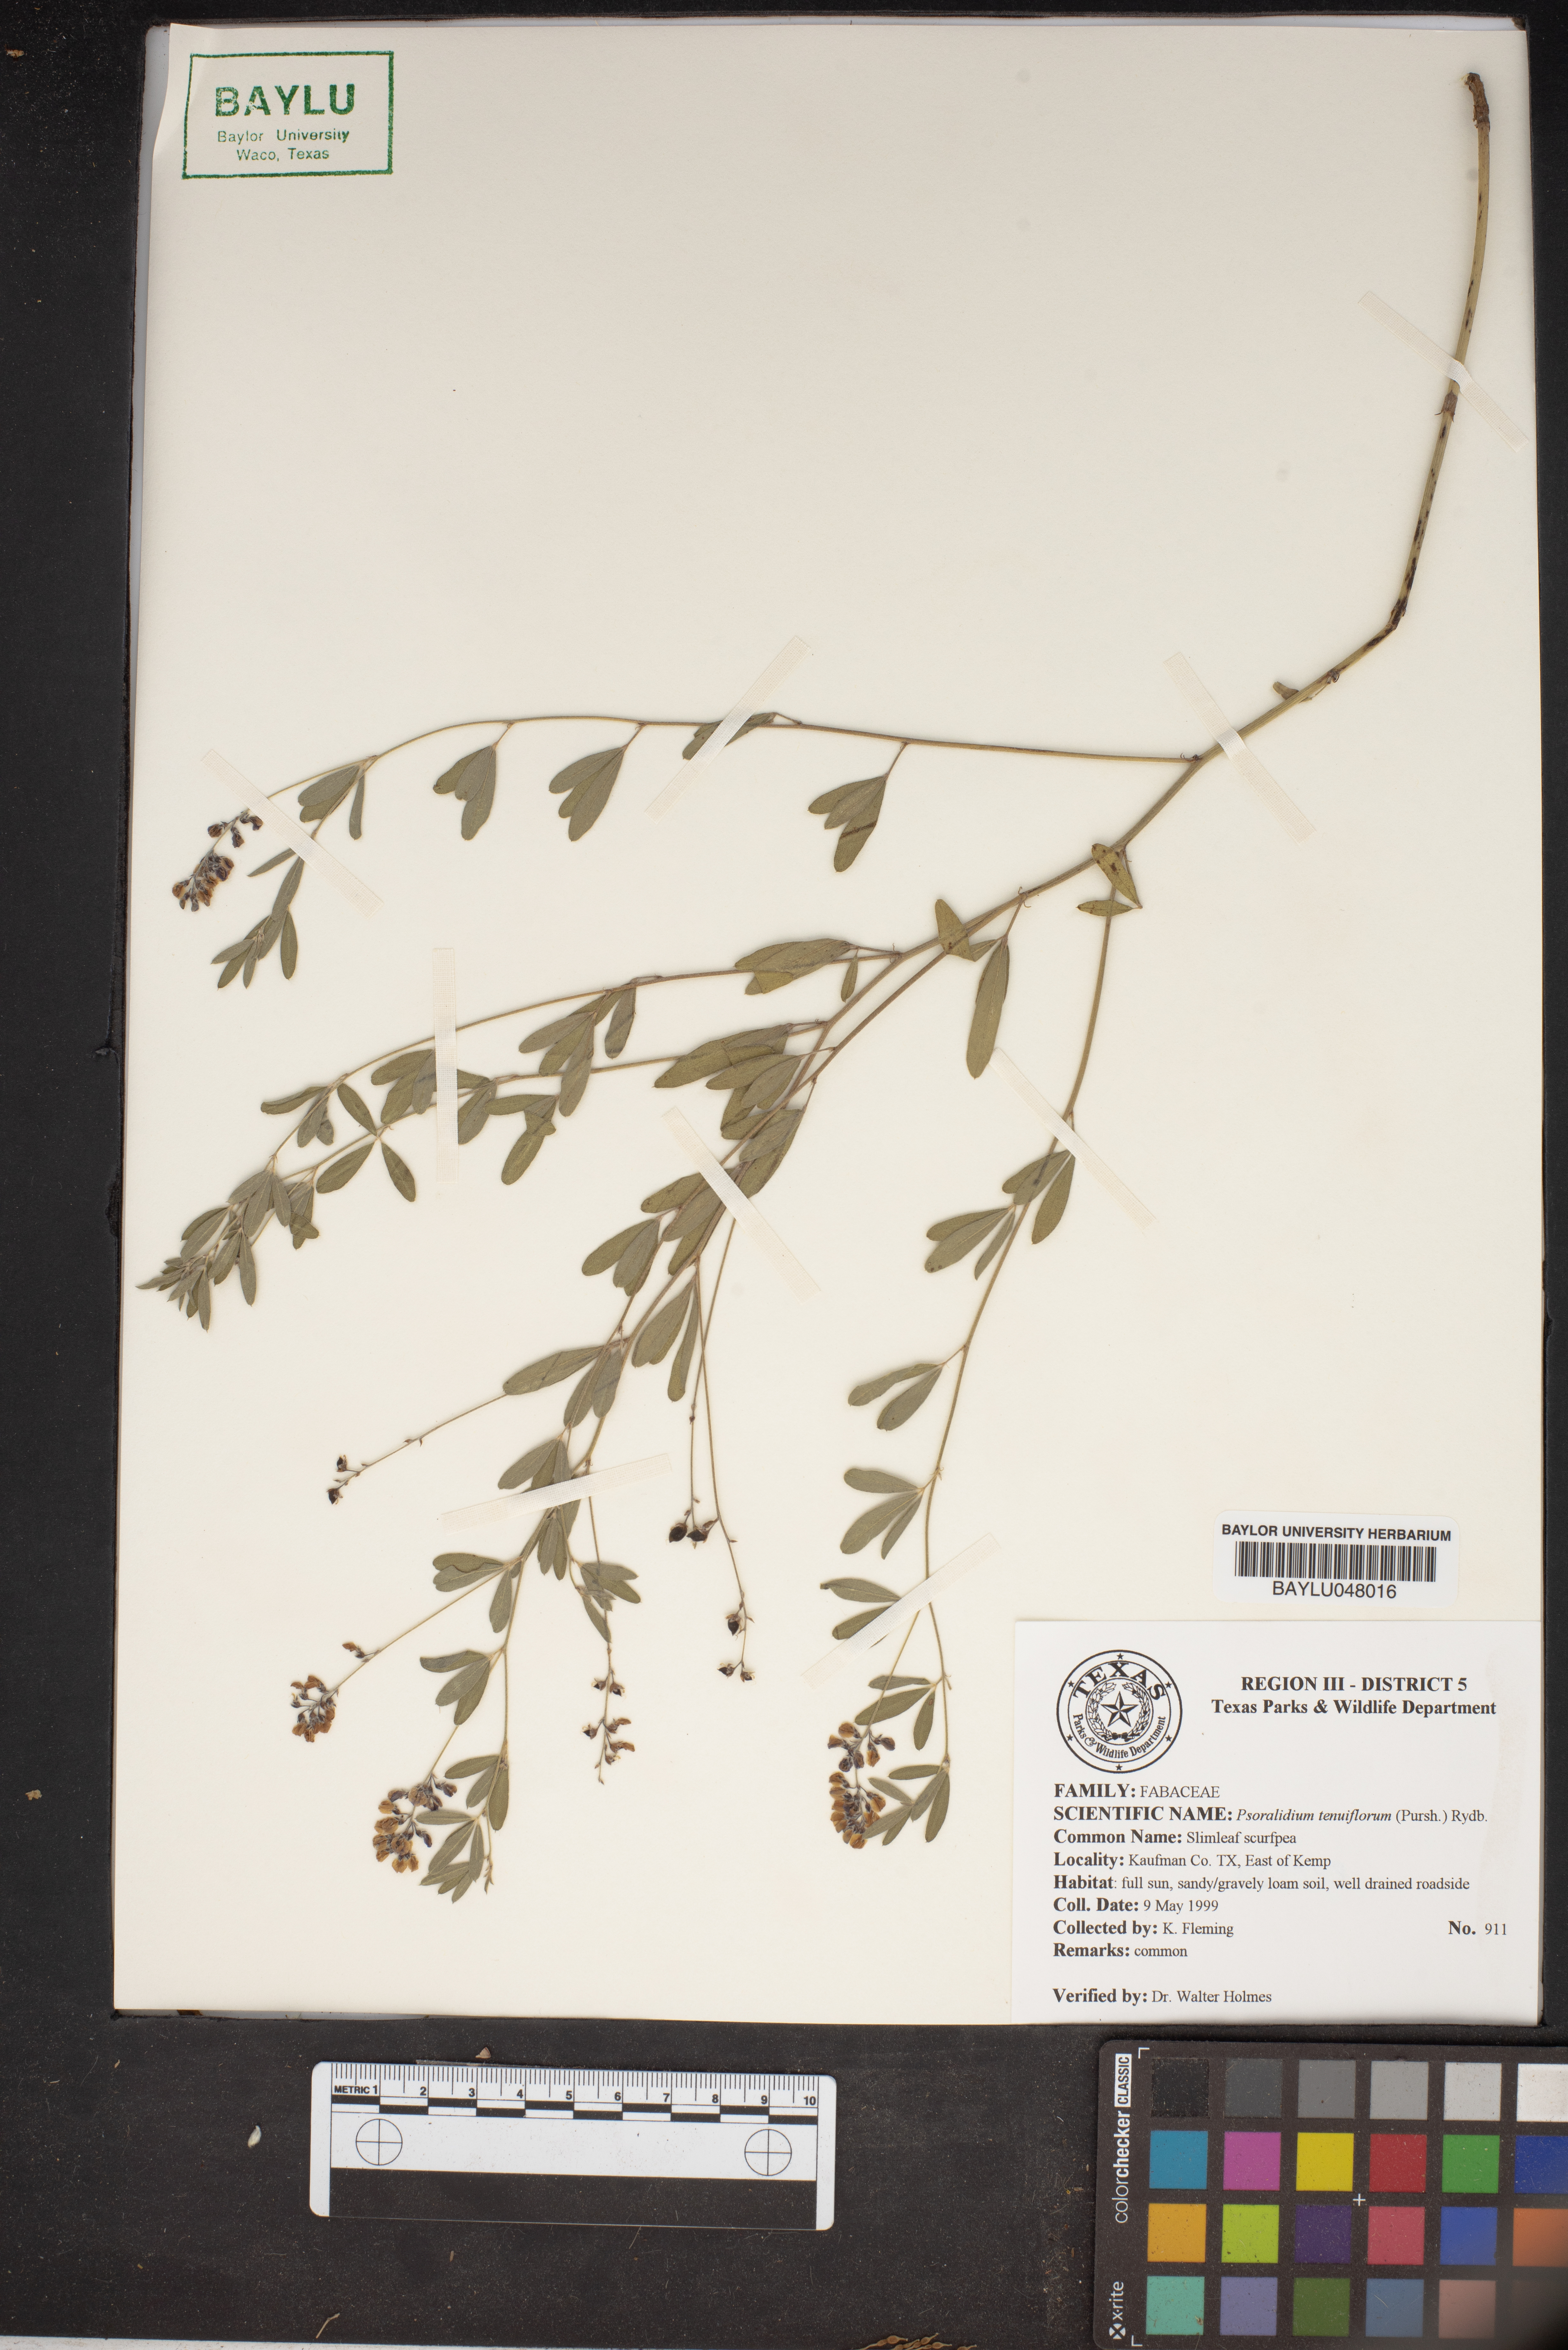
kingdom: Plantae
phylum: Tracheophyta
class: Magnoliopsida
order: Fabales
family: Fabaceae
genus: Pediomelum
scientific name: Pediomelum tenuiflorum
